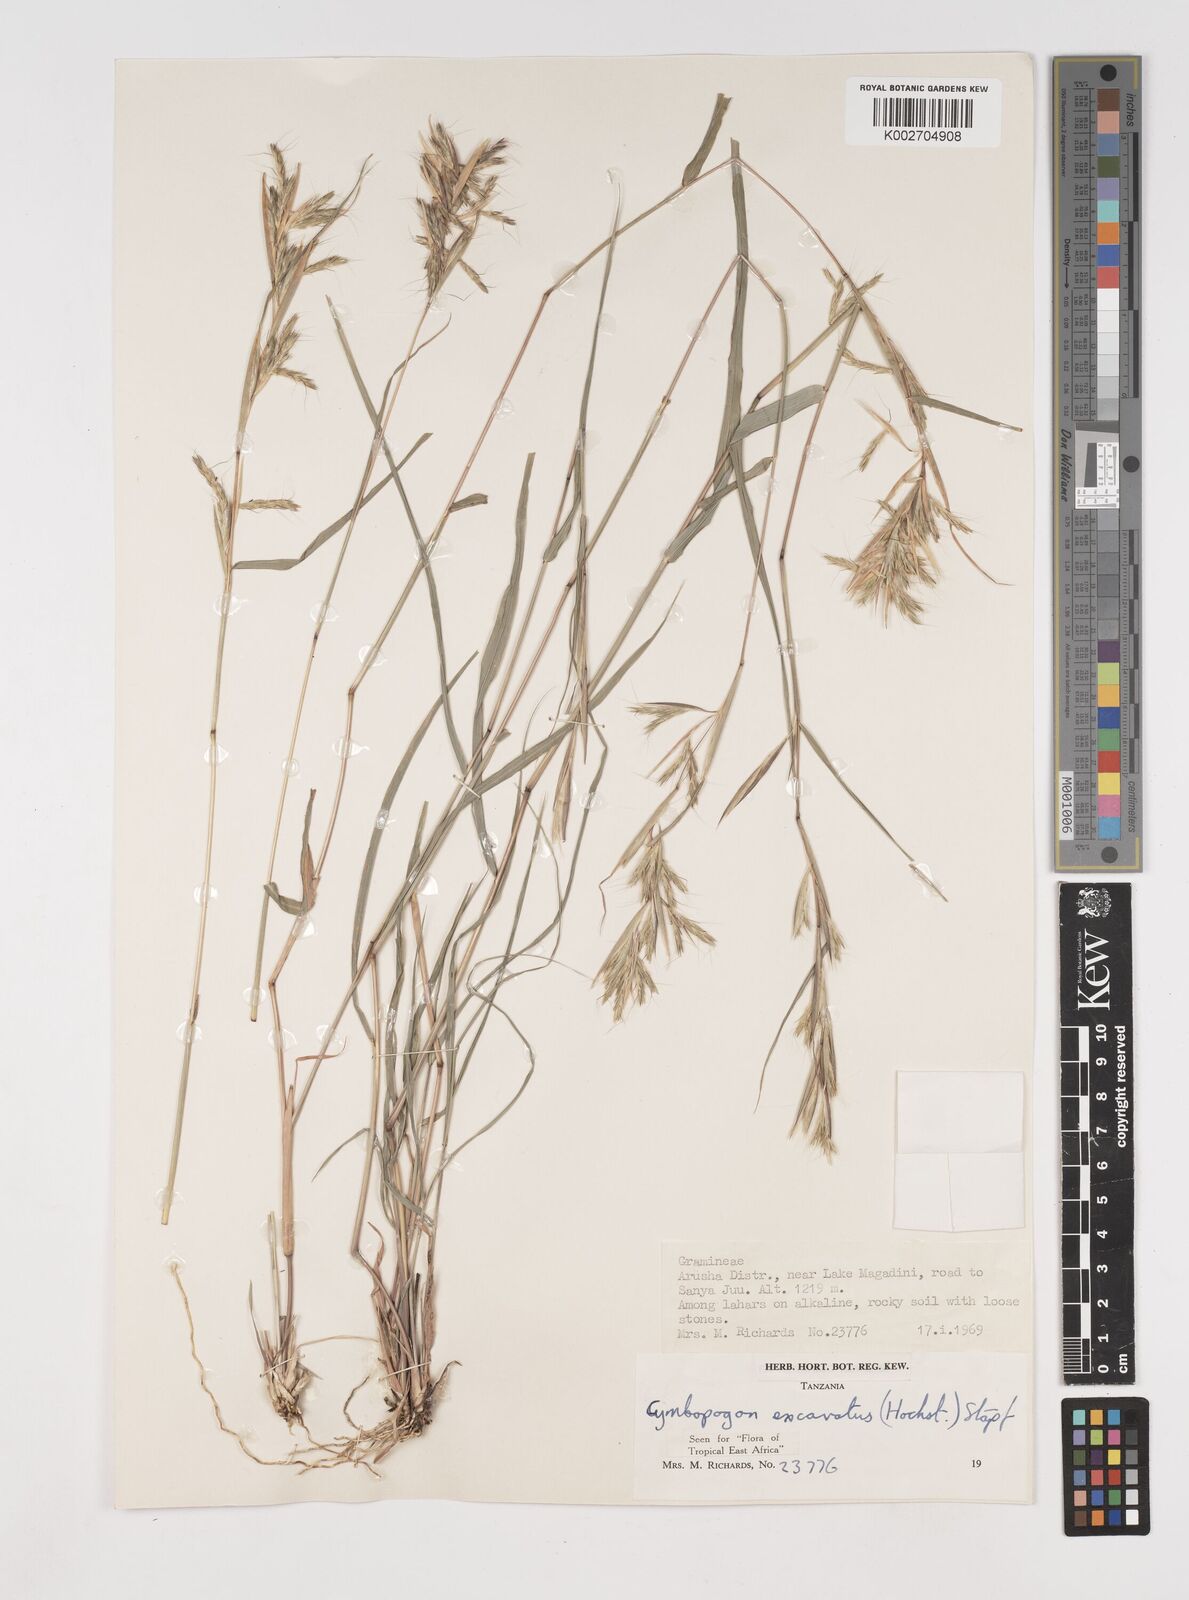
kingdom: Plantae
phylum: Tracheophyta
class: Liliopsida
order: Poales
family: Poaceae
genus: Cymbopogon
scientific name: Cymbopogon caesius
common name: Kachi grass
